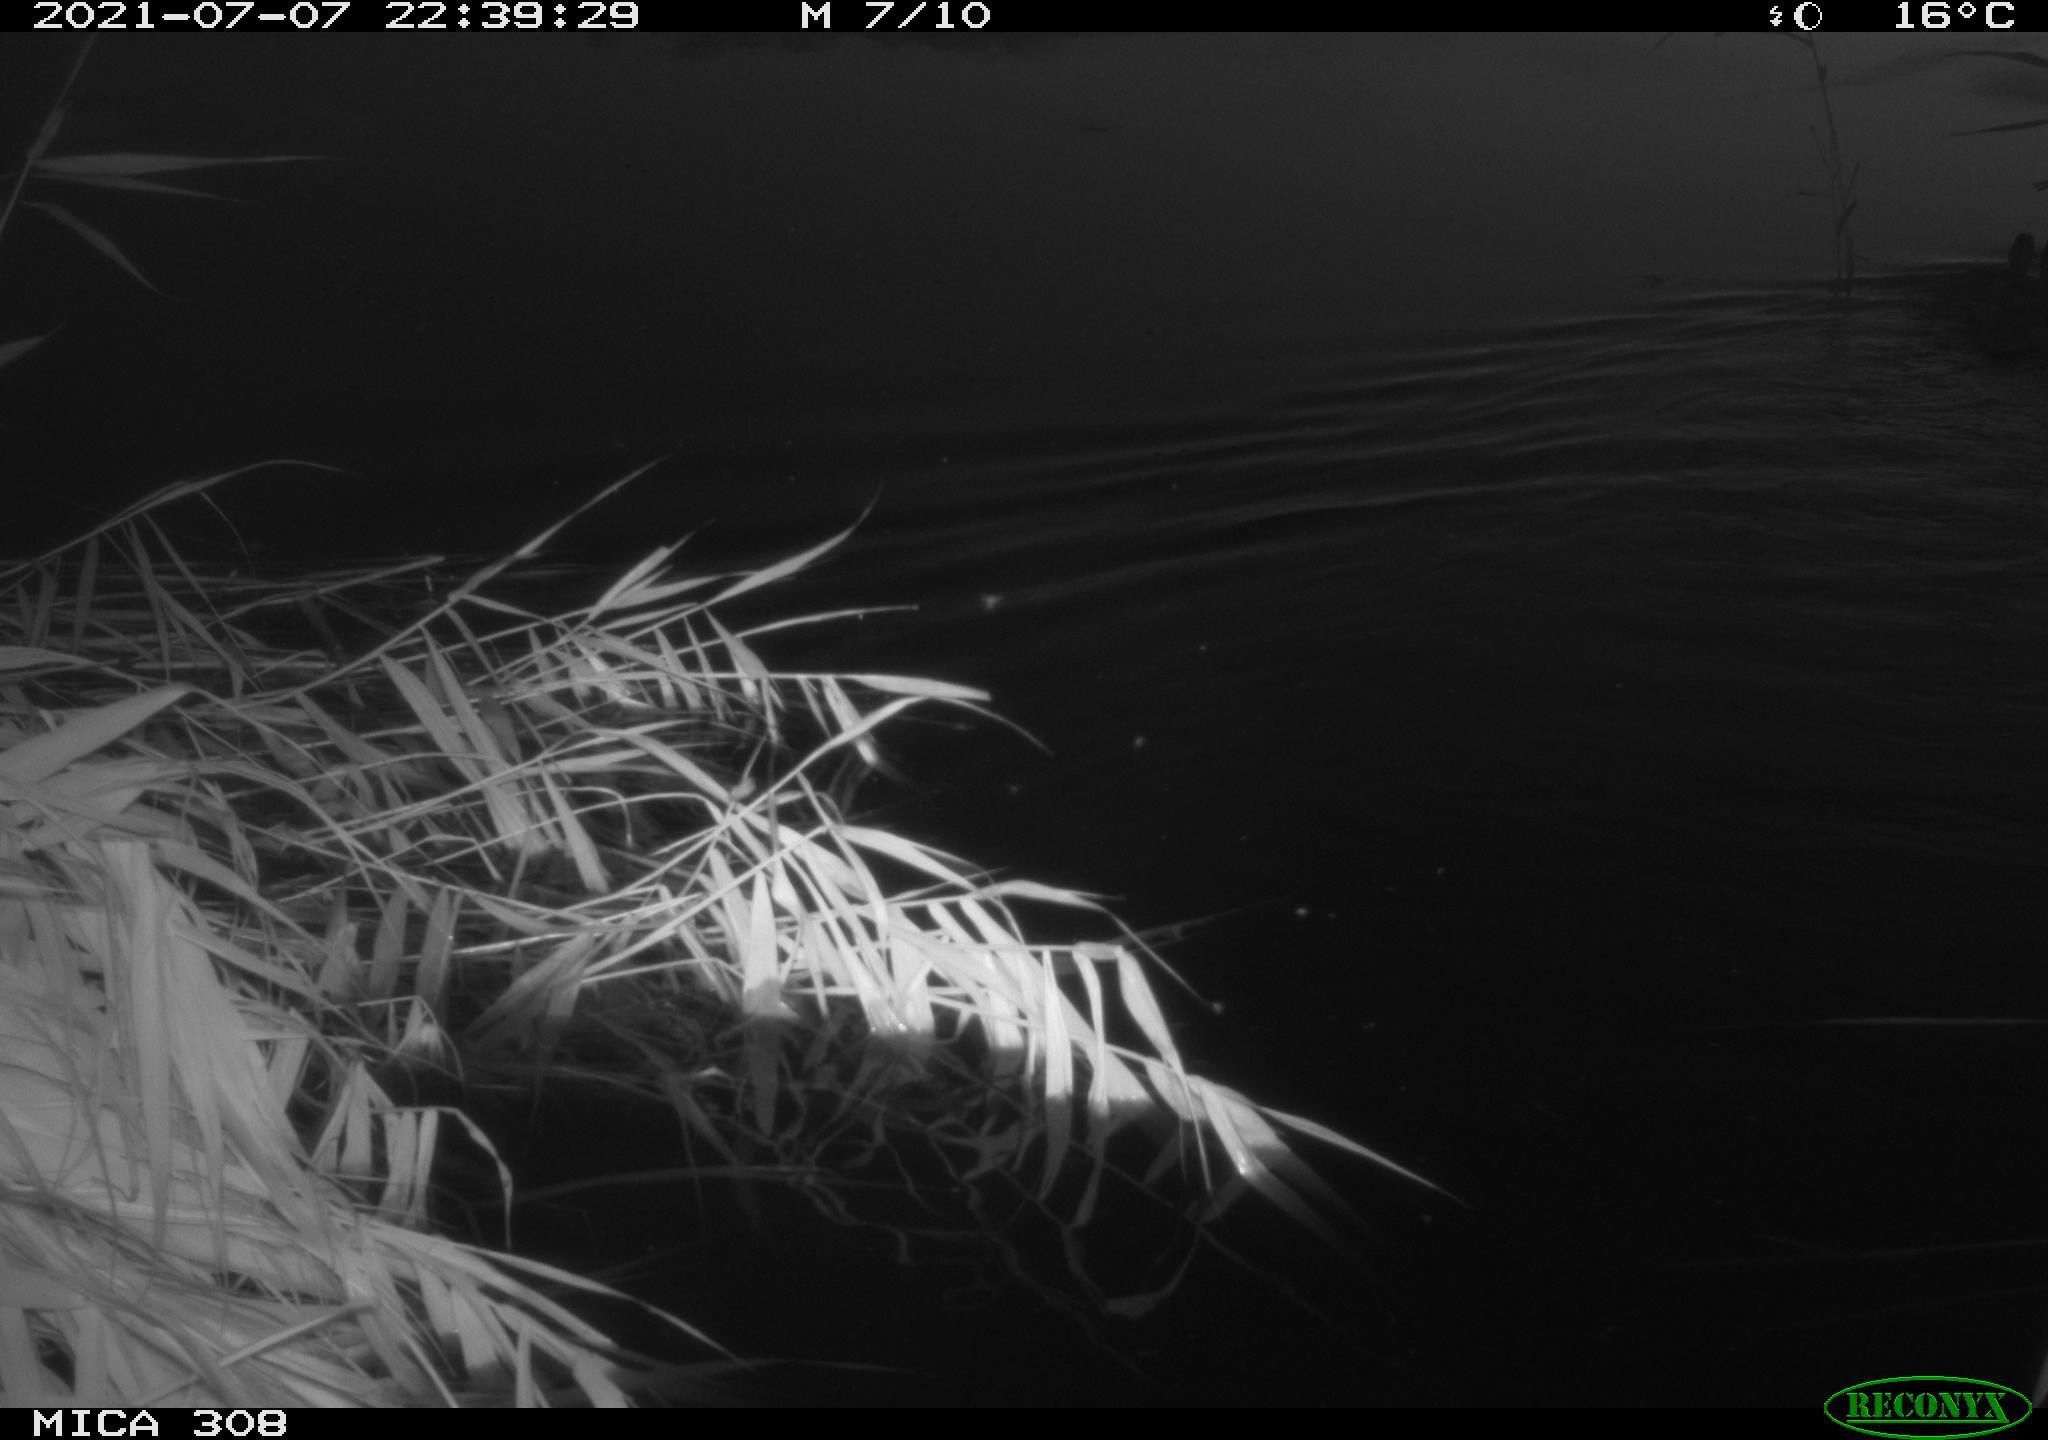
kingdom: Animalia
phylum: Chordata
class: Mammalia
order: Rodentia
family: Muridae
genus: Rattus
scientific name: Rattus norvegicus
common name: Brown rat
